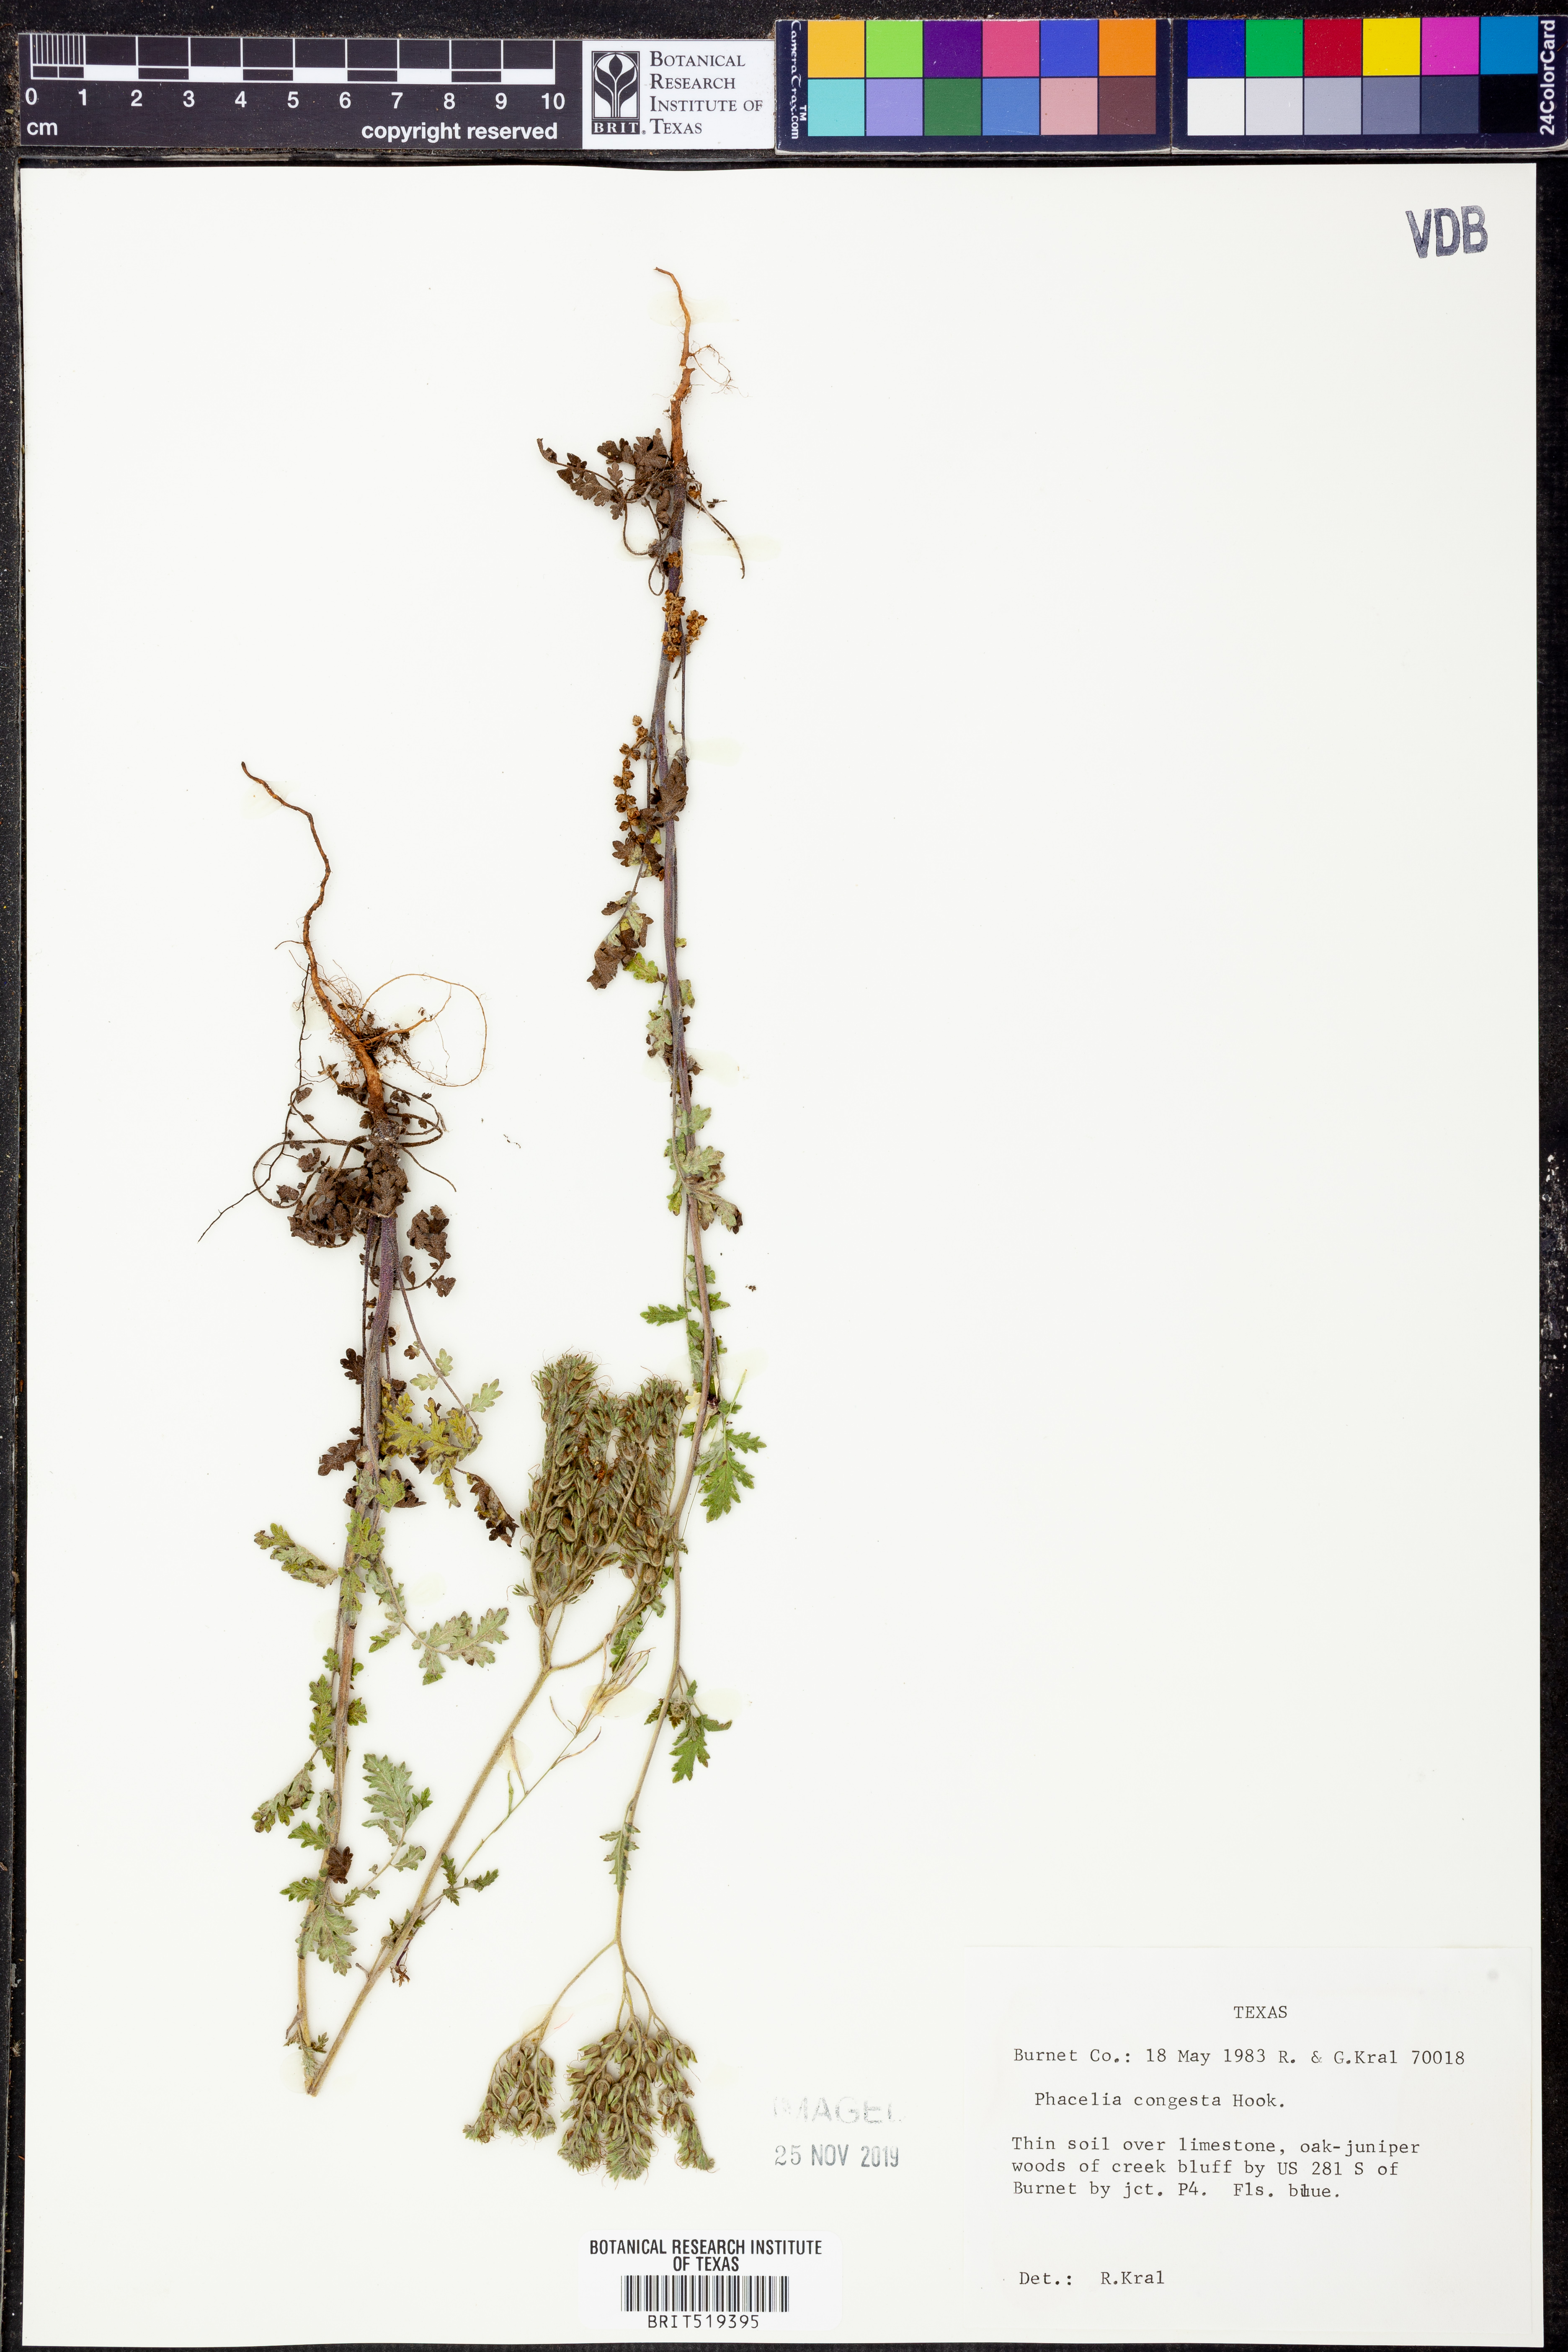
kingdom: Plantae
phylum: Tracheophyta
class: Magnoliopsida
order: Boraginales
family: Hydrophyllaceae
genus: Phacelia
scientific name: Phacelia congesta
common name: Blue curls
